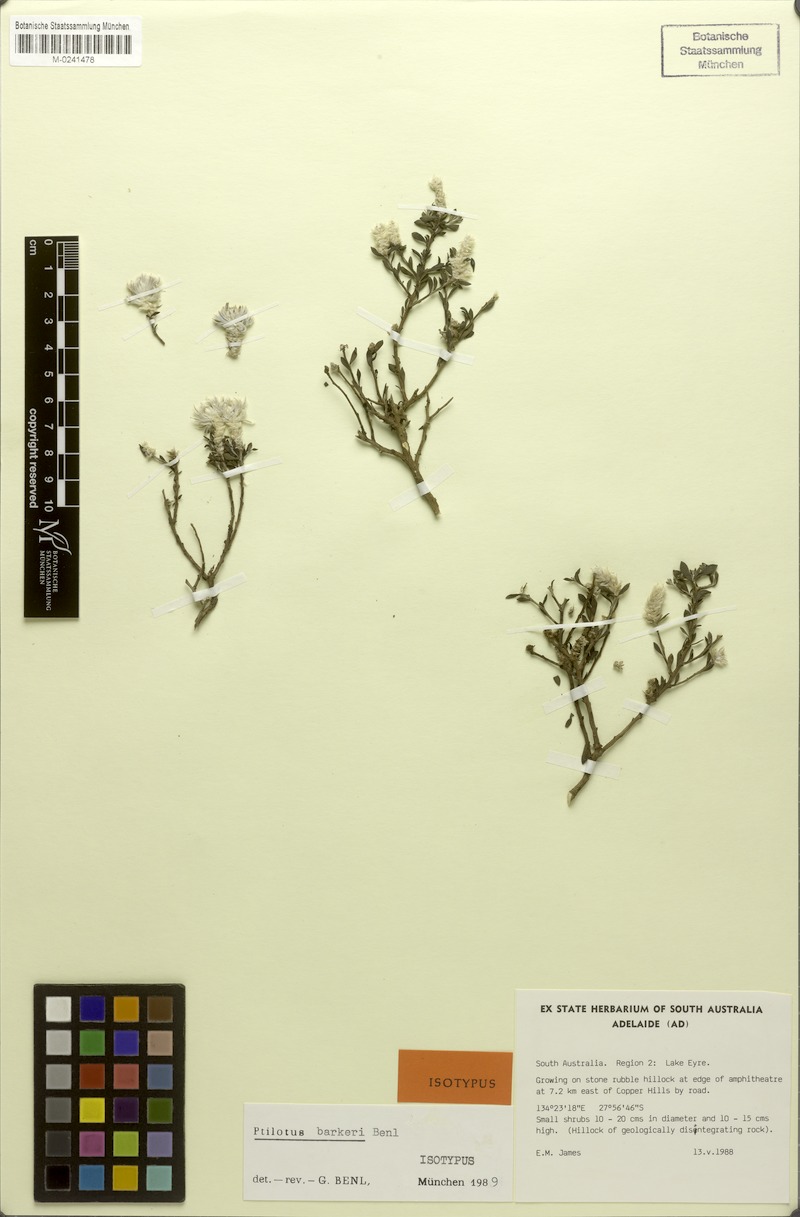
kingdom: Plantae
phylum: Tracheophyta
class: Magnoliopsida
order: Caryophyllales
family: Amaranthaceae
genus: Ptilotus
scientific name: Ptilotus barkeri
